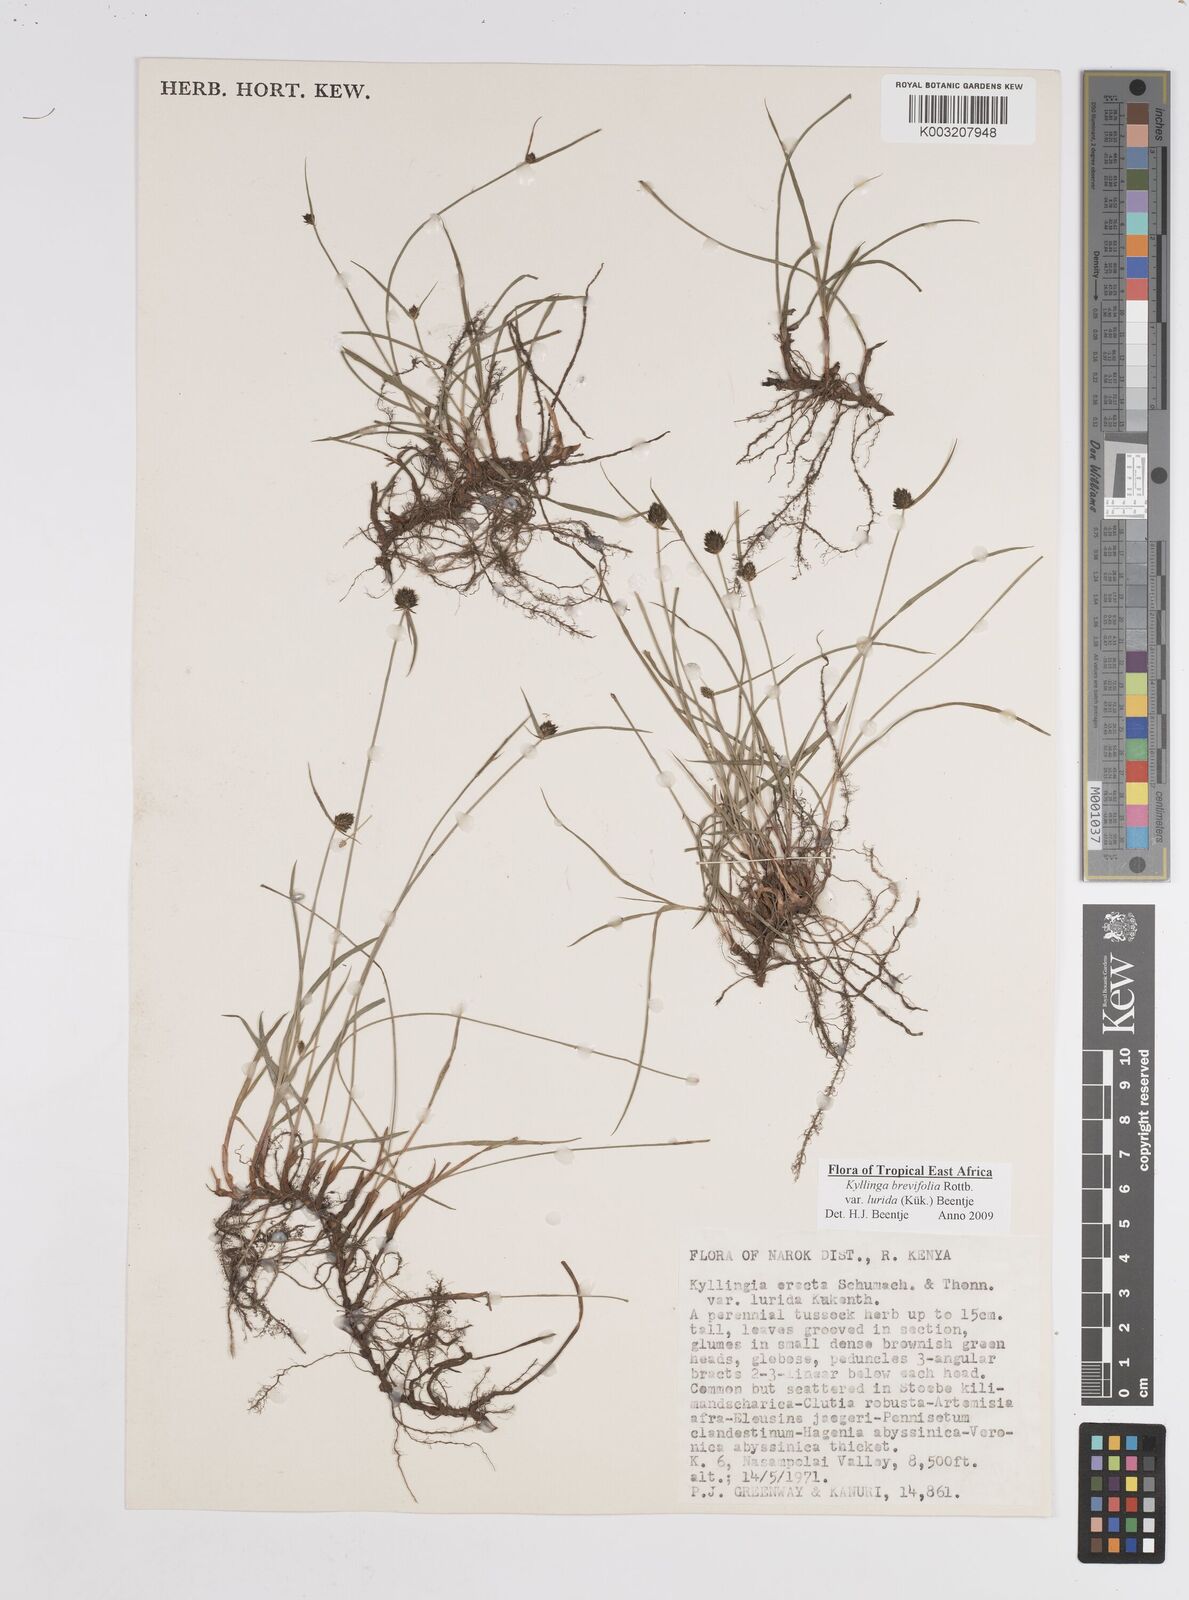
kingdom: Plantae
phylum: Tracheophyta
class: Liliopsida
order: Poales
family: Cyperaceae
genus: Cyperus
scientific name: Cyperus erectus
